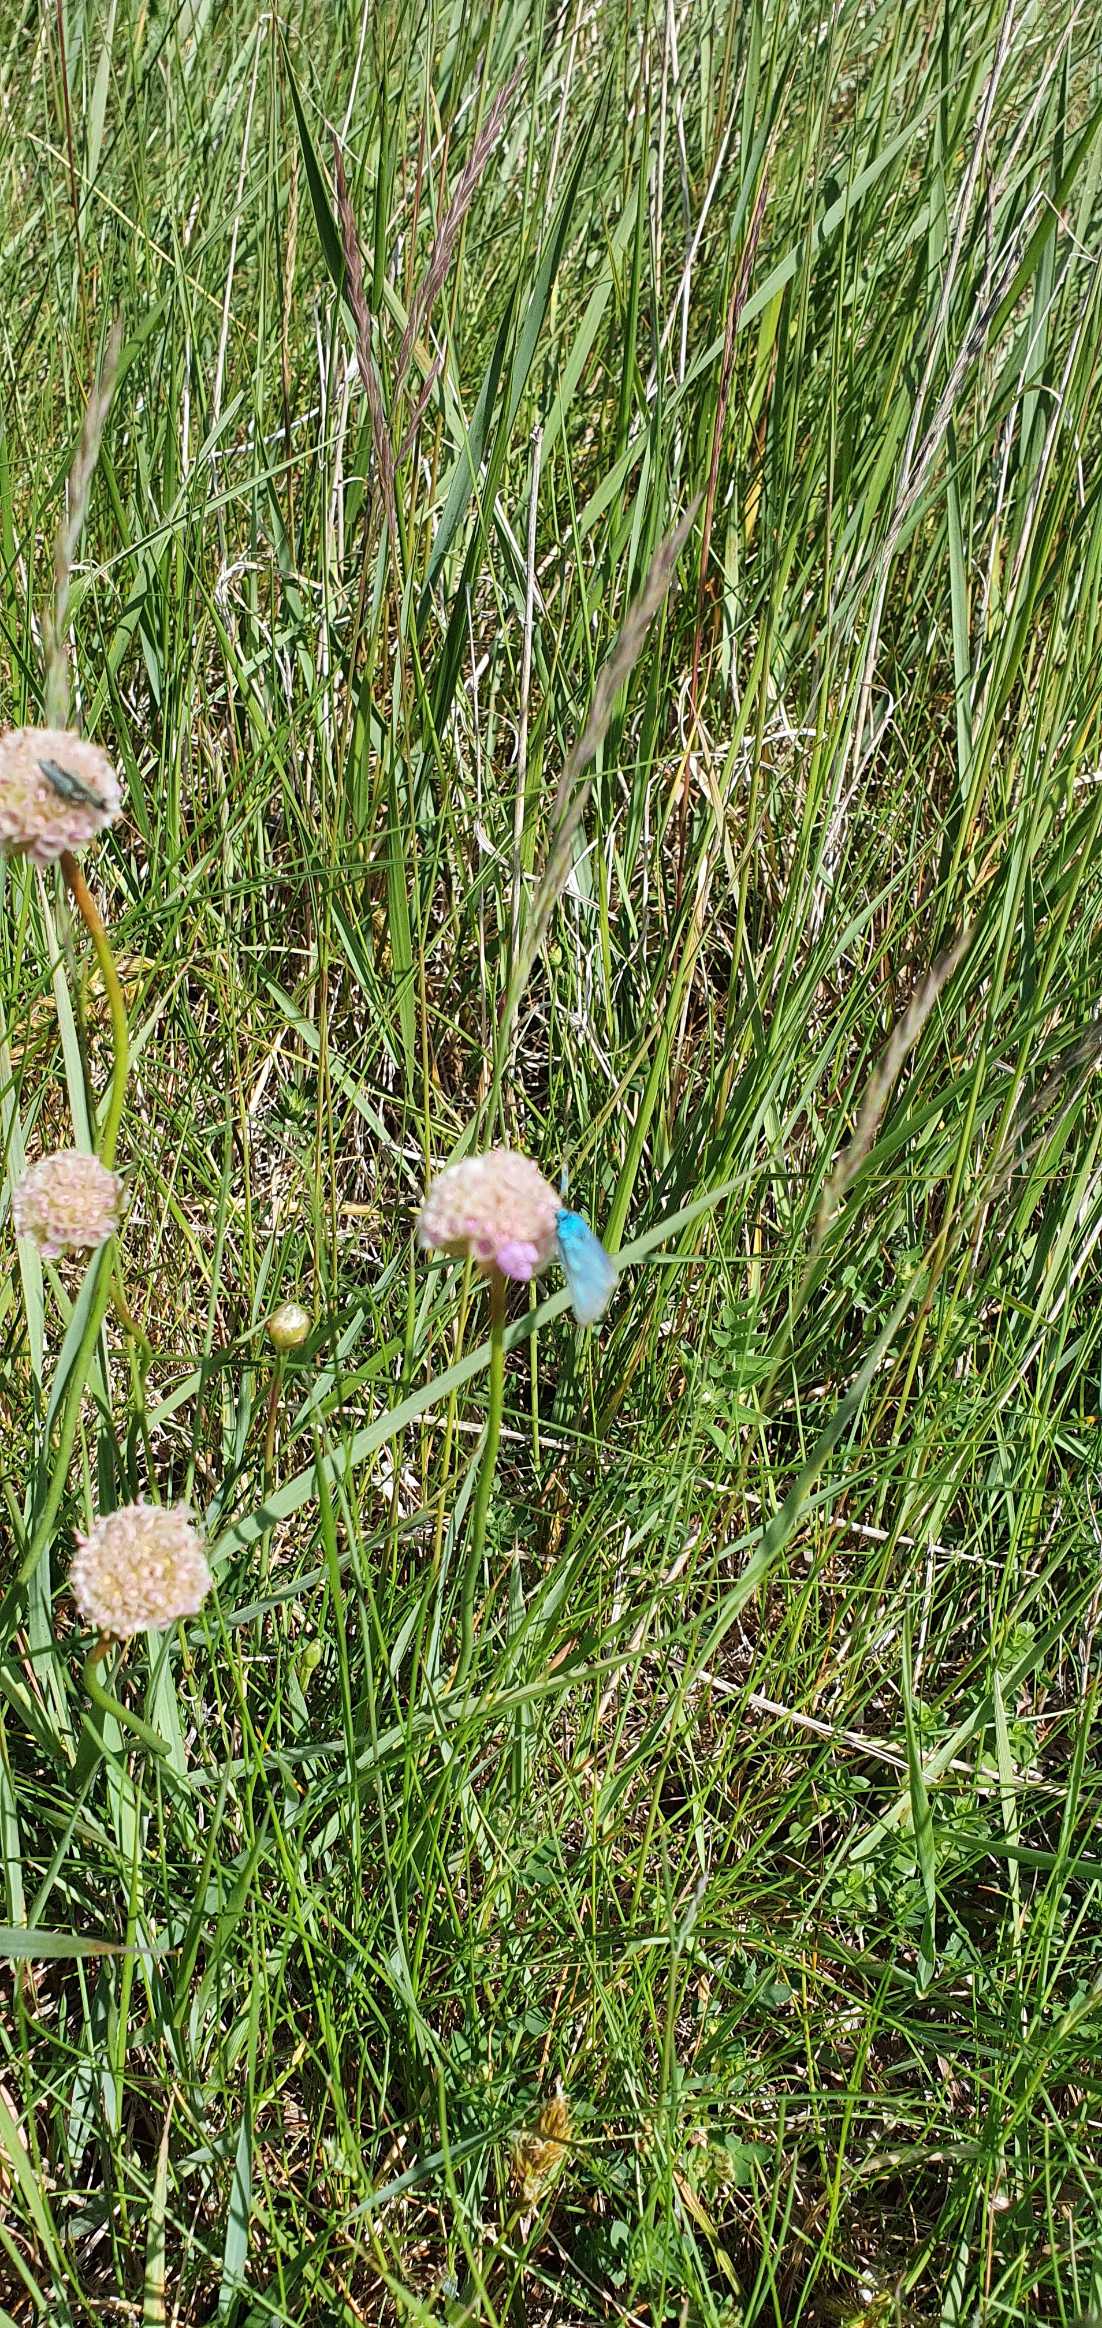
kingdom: Animalia
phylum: Arthropoda
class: Insecta
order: Lepidoptera
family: Zygaenidae
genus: Adscita
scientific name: Adscita statices
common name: Metalvinge
